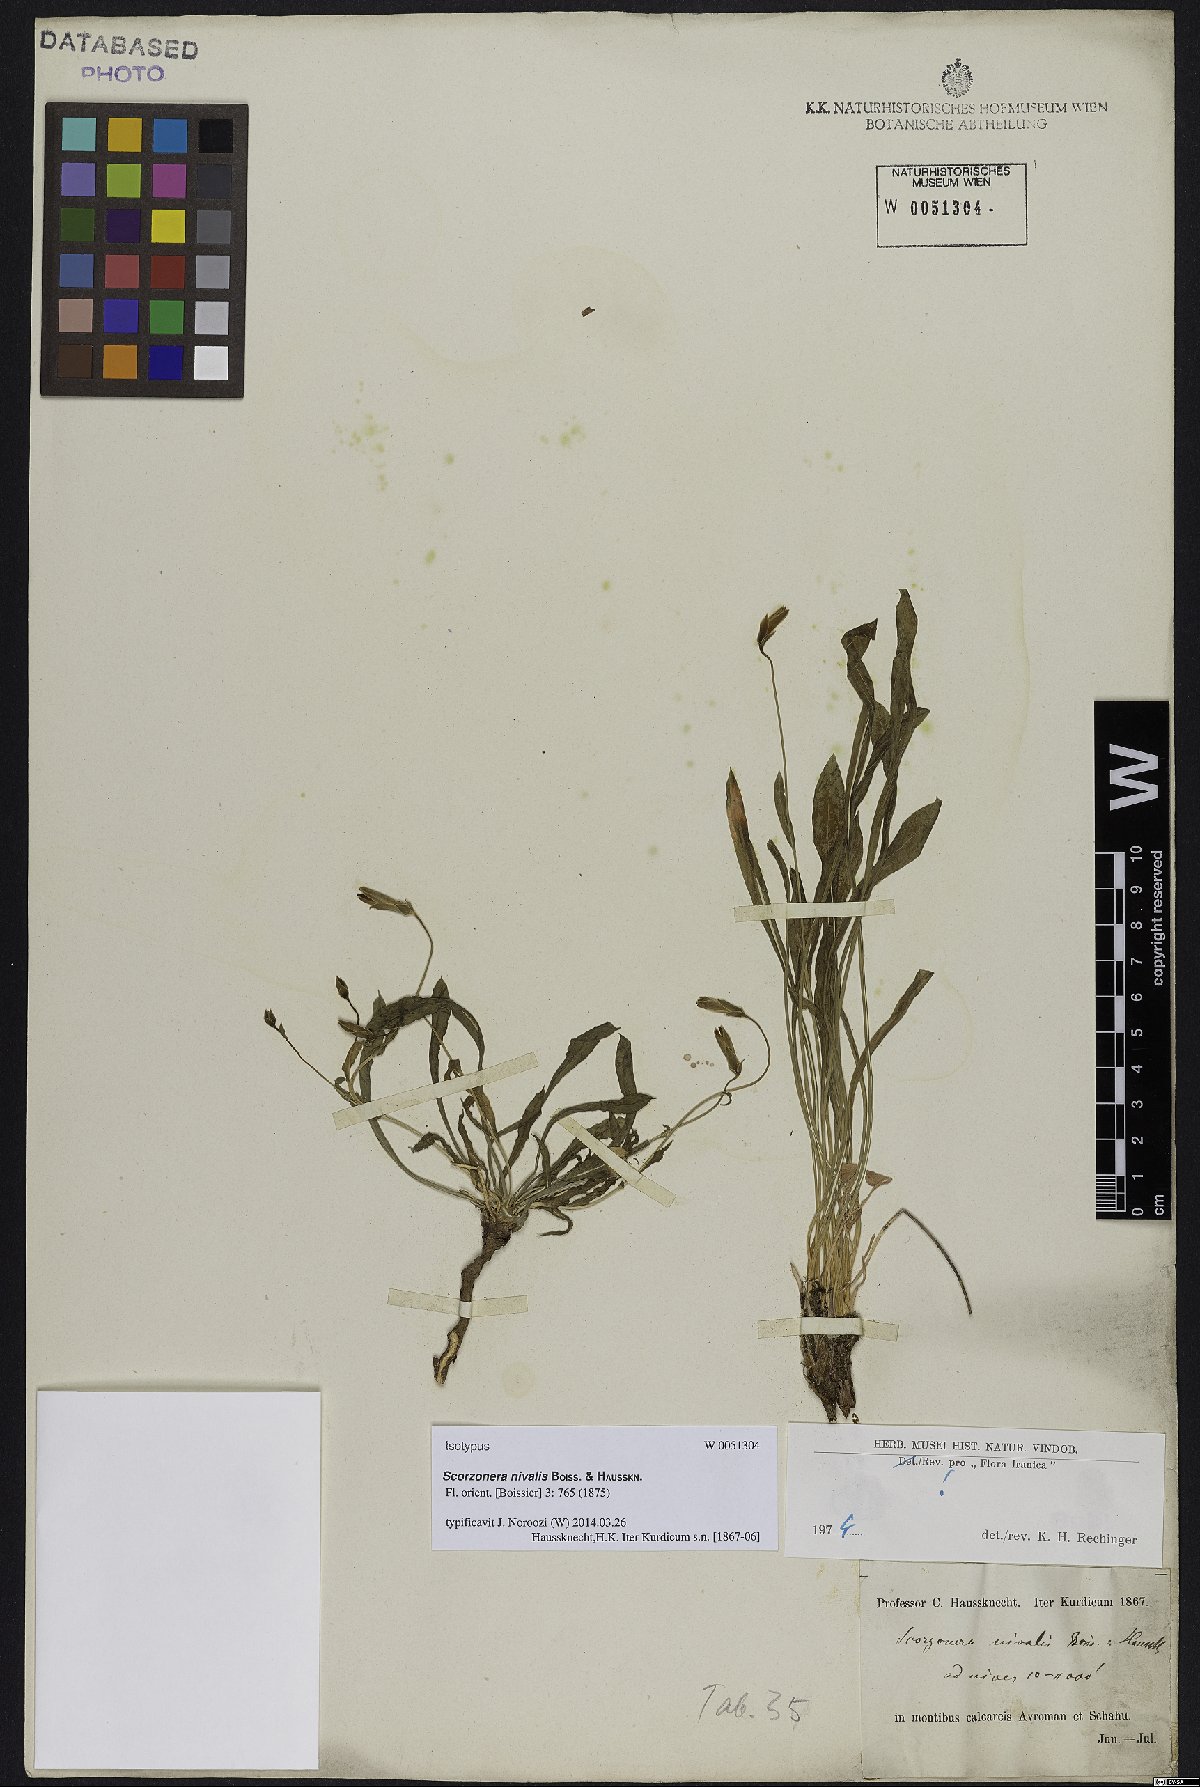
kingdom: Plantae
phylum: Tracheophyta
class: Magnoliopsida
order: Asterales
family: Asteraceae
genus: Scorzonera
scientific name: Scorzonera nivalis
